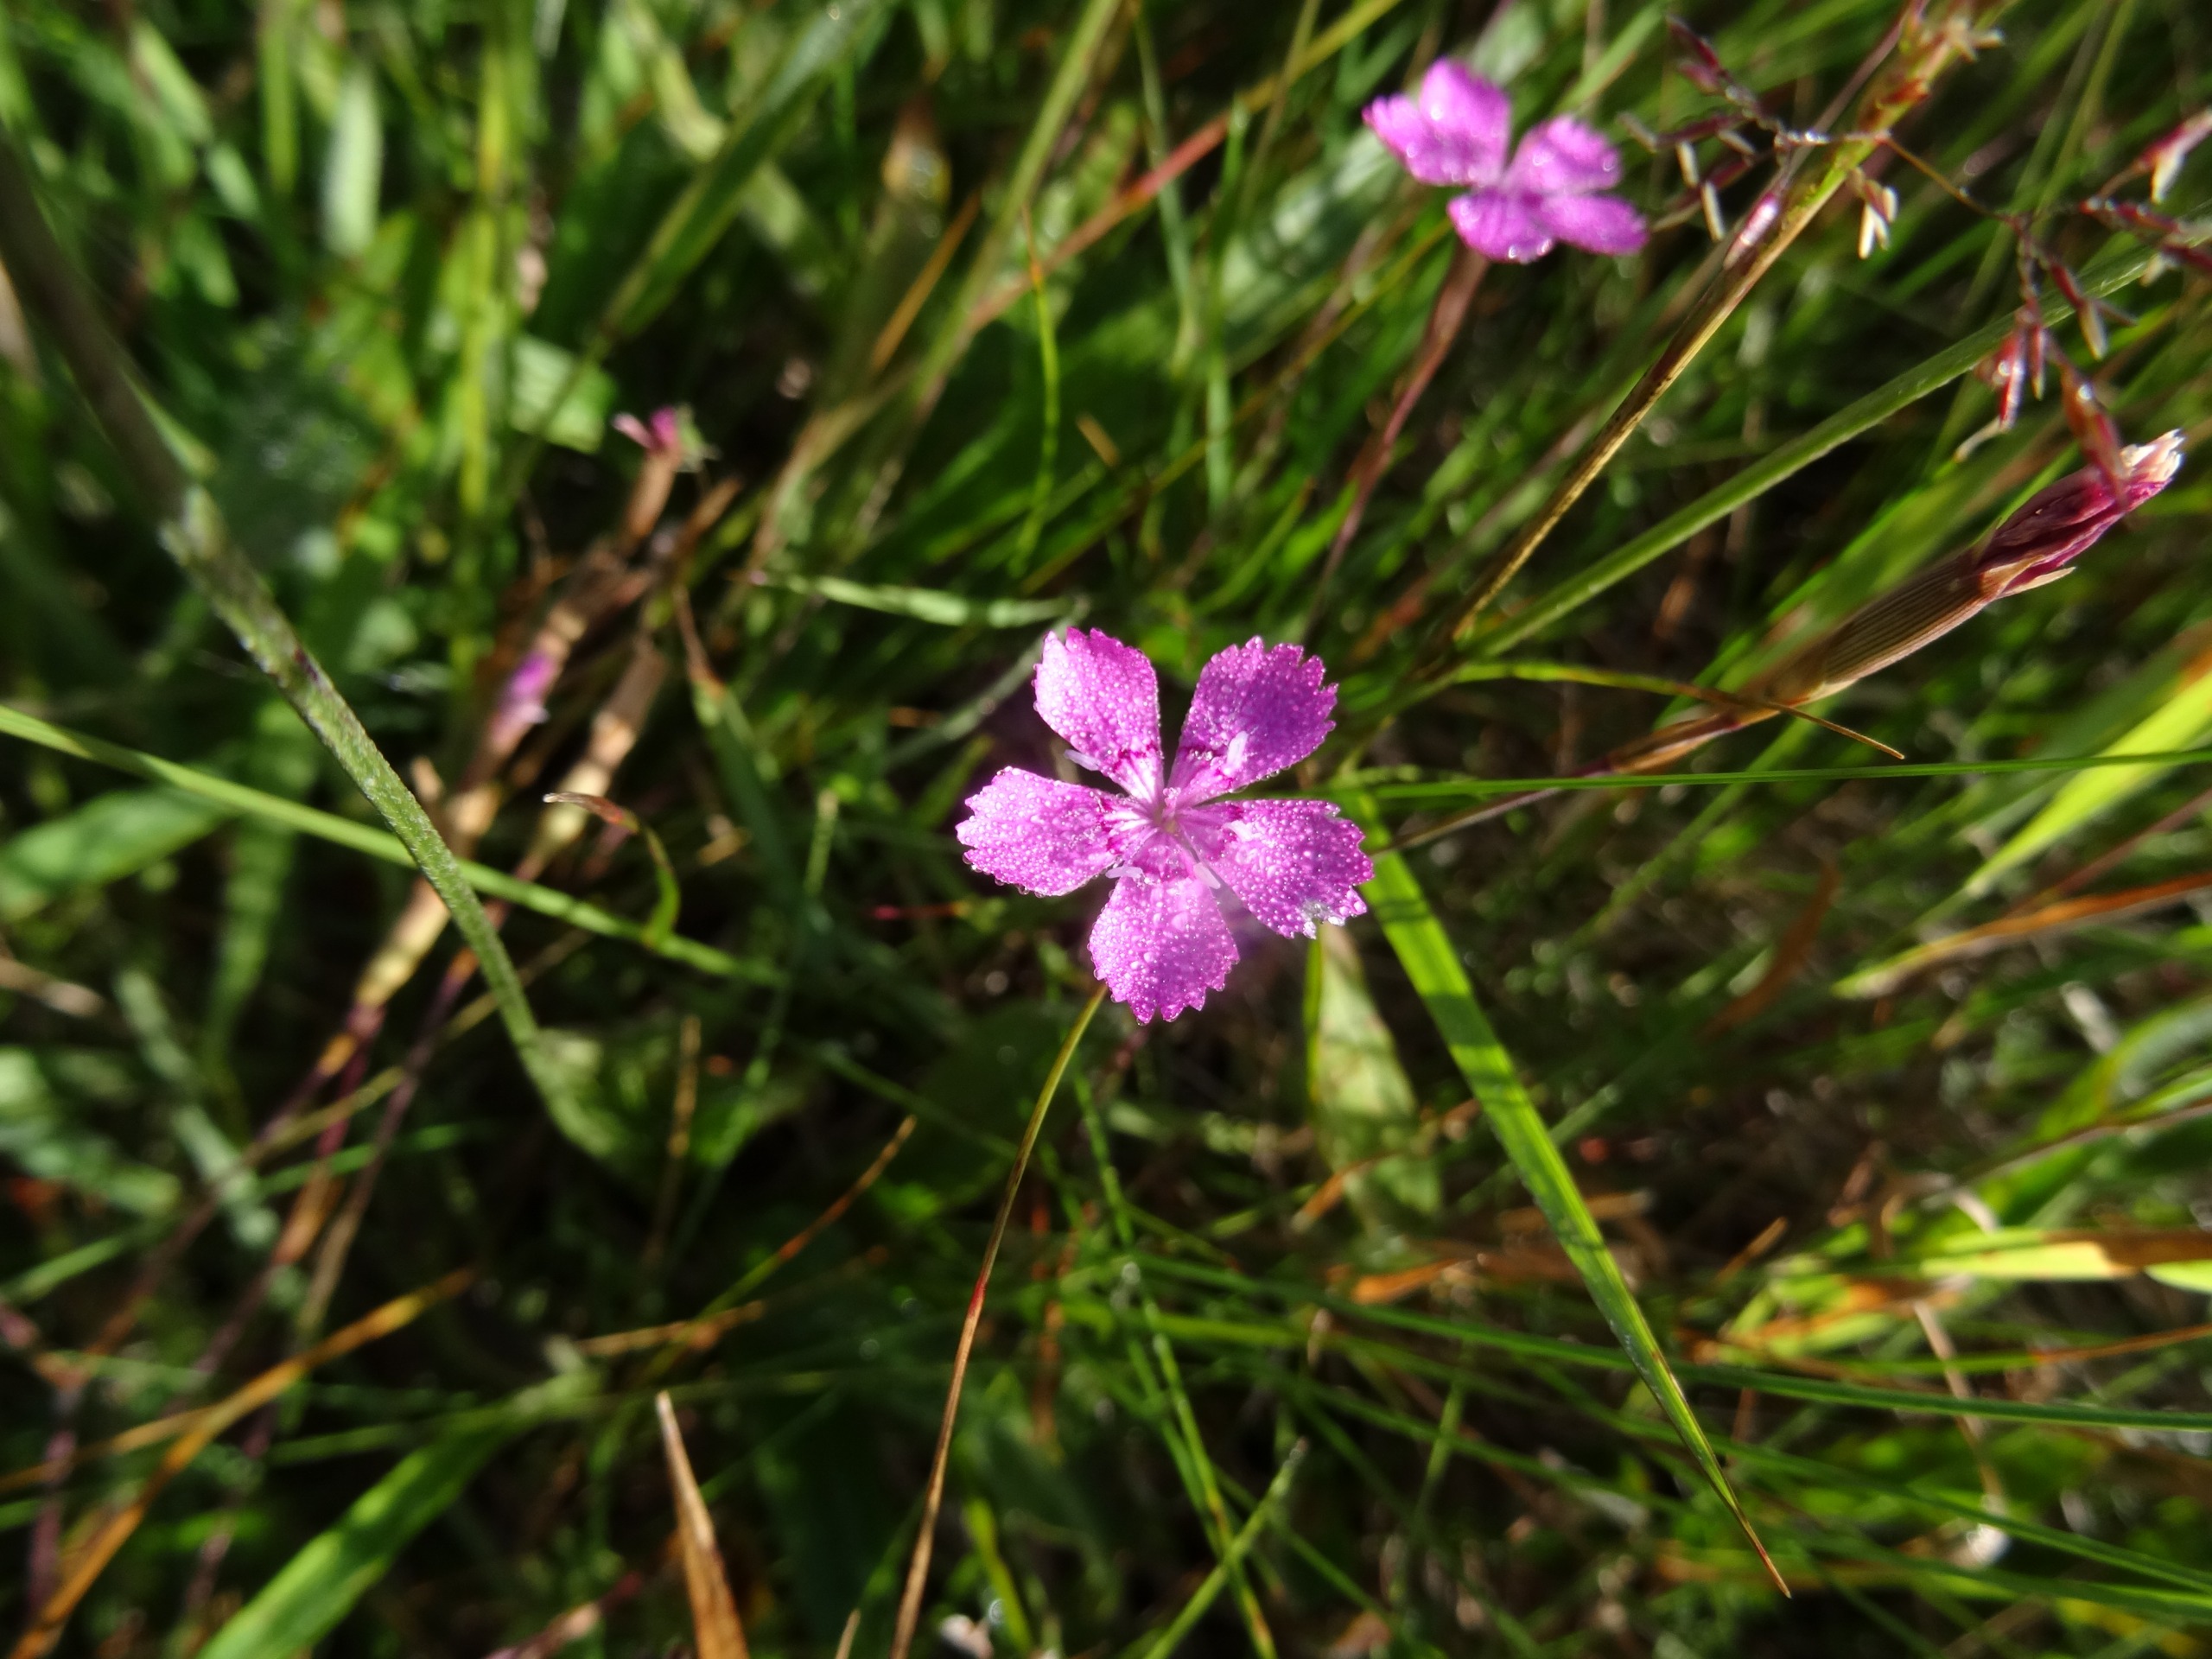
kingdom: Plantae
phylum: Tracheophyta
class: Magnoliopsida
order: Caryophyllales
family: Caryophyllaceae
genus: Dianthus
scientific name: Dianthus deltoides
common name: Bakke-nellike
